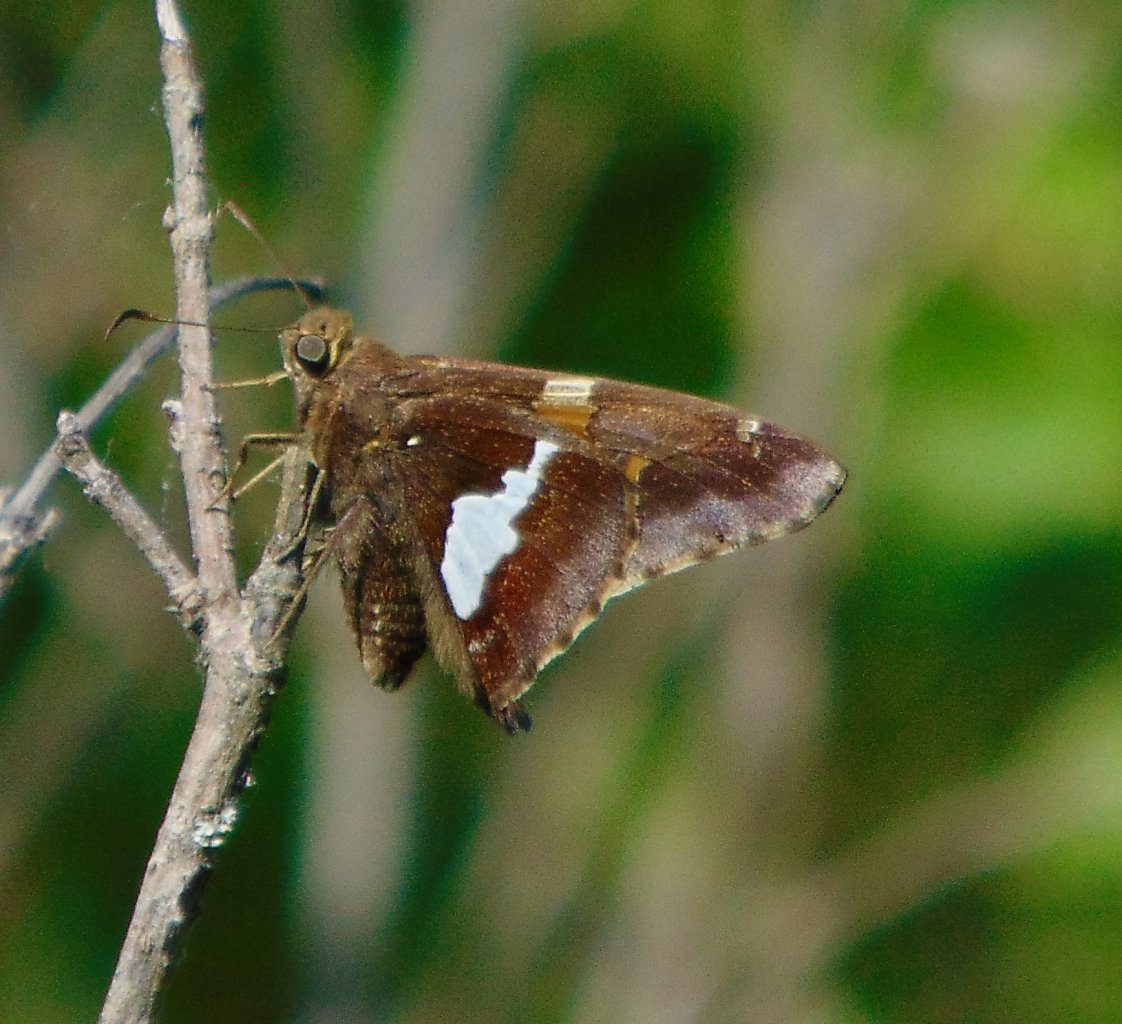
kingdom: Animalia
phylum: Arthropoda
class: Insecta
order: Lepidoptera
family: Hesperiidae
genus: Epargyreus
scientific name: Epargyreus clarus
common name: Silver-spotted Skipper
